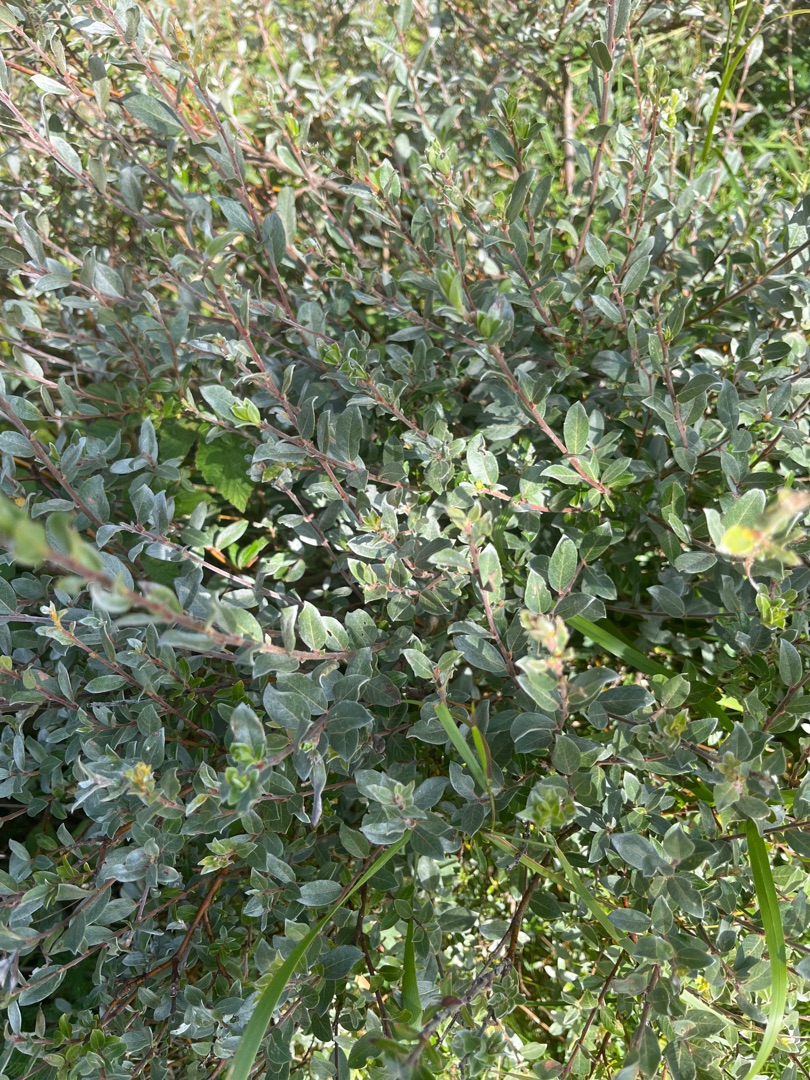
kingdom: Plantae
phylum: Tracheophyta
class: Magnoliopsida
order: Malpighiales
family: Salicaceae
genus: Salix
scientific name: Salix repens
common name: Krybende pil
